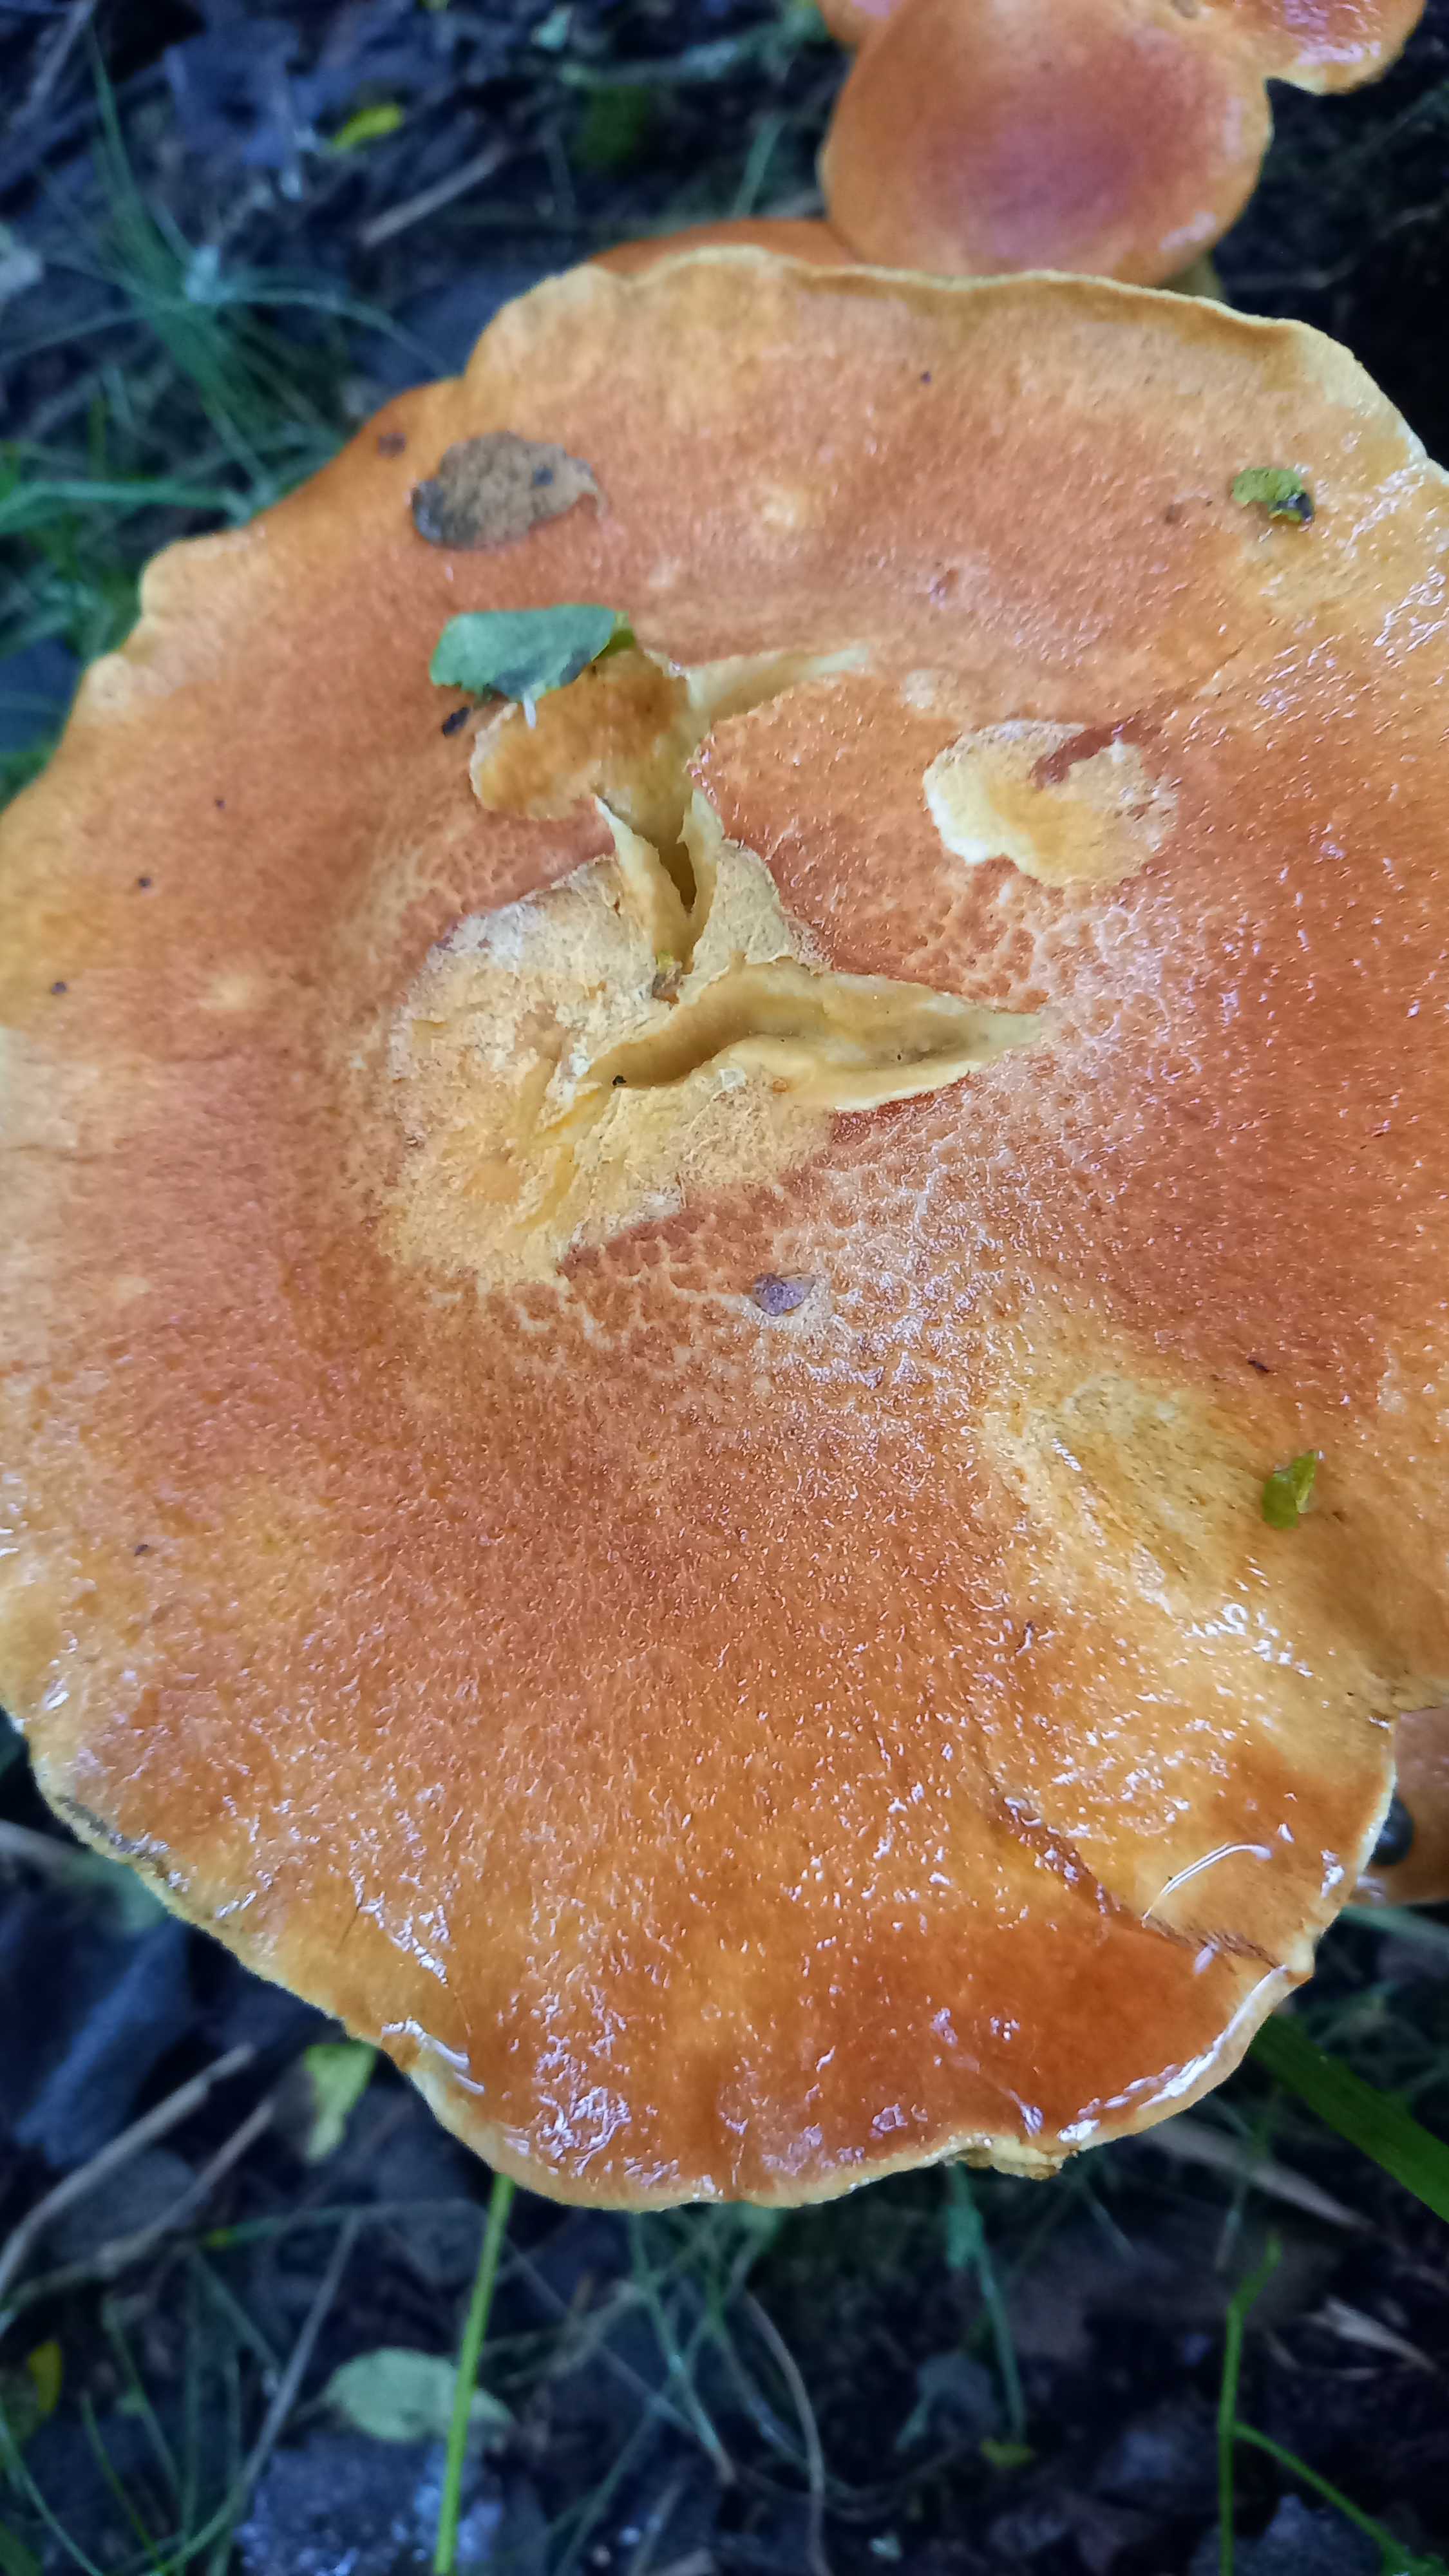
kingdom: Fungi
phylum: Basidiomycota
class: Agaricomycetes
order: Agaricales
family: Hymenogastraceae
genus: Gymnopilus
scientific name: Gymnopilus spectabilis
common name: fibret flammehat
